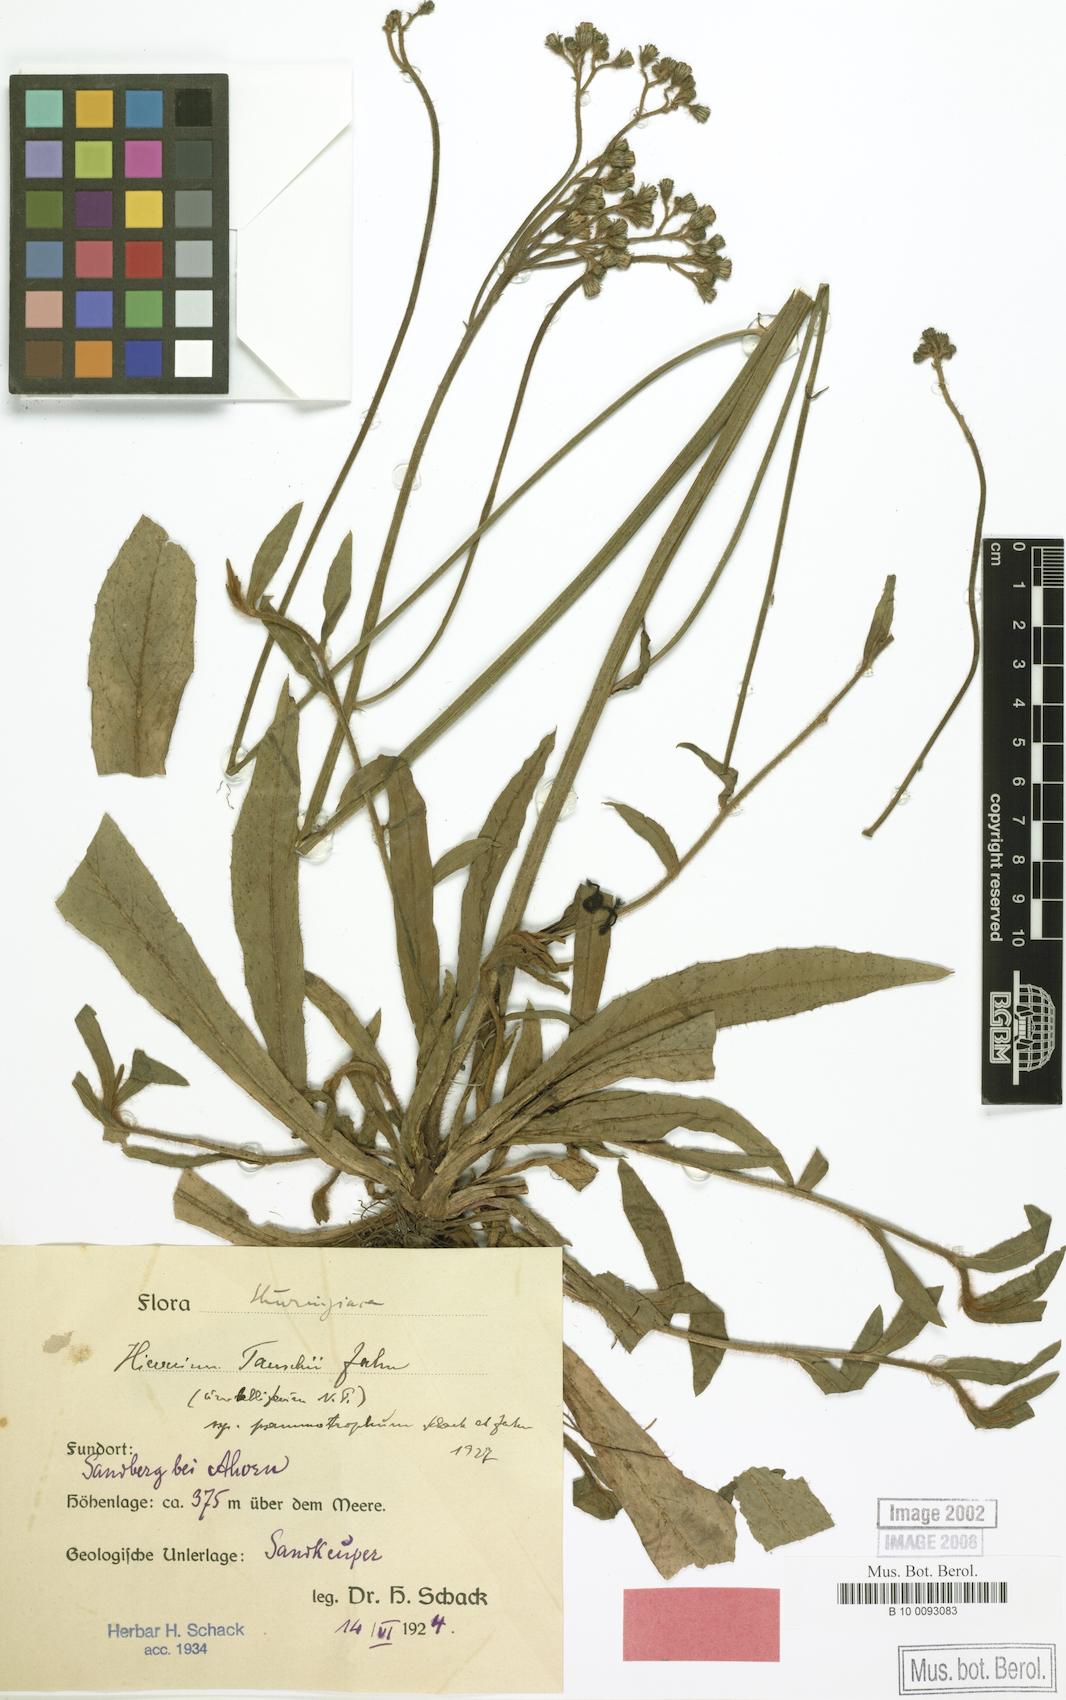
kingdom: Plantae
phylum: Tracheophyta
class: Magnoliopsida
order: Asterales
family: Asteraceae
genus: Pilosella
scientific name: Pilosella densiflora
